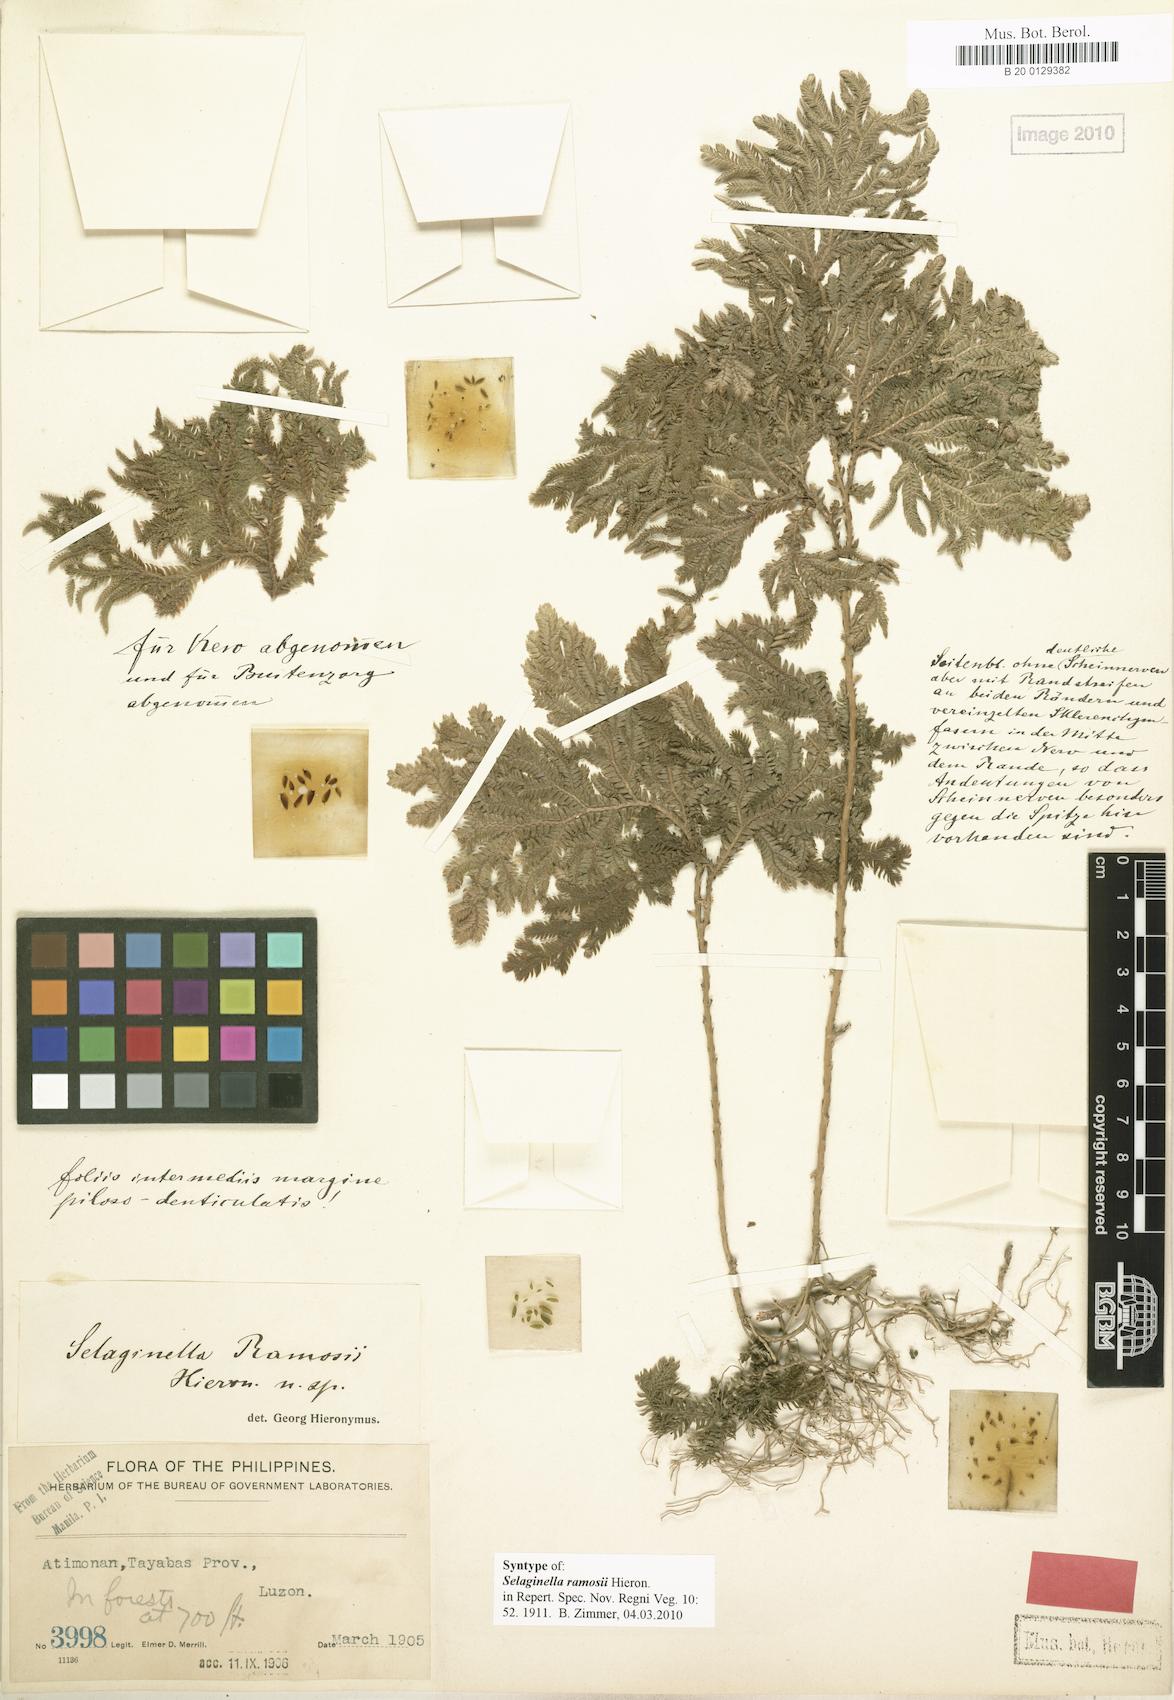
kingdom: Plantae
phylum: Tracheophyta
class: Lycopodiopsida
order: Selaginellales
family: Selaginellaceae
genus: Selaginella
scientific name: Selaginella ramosii
